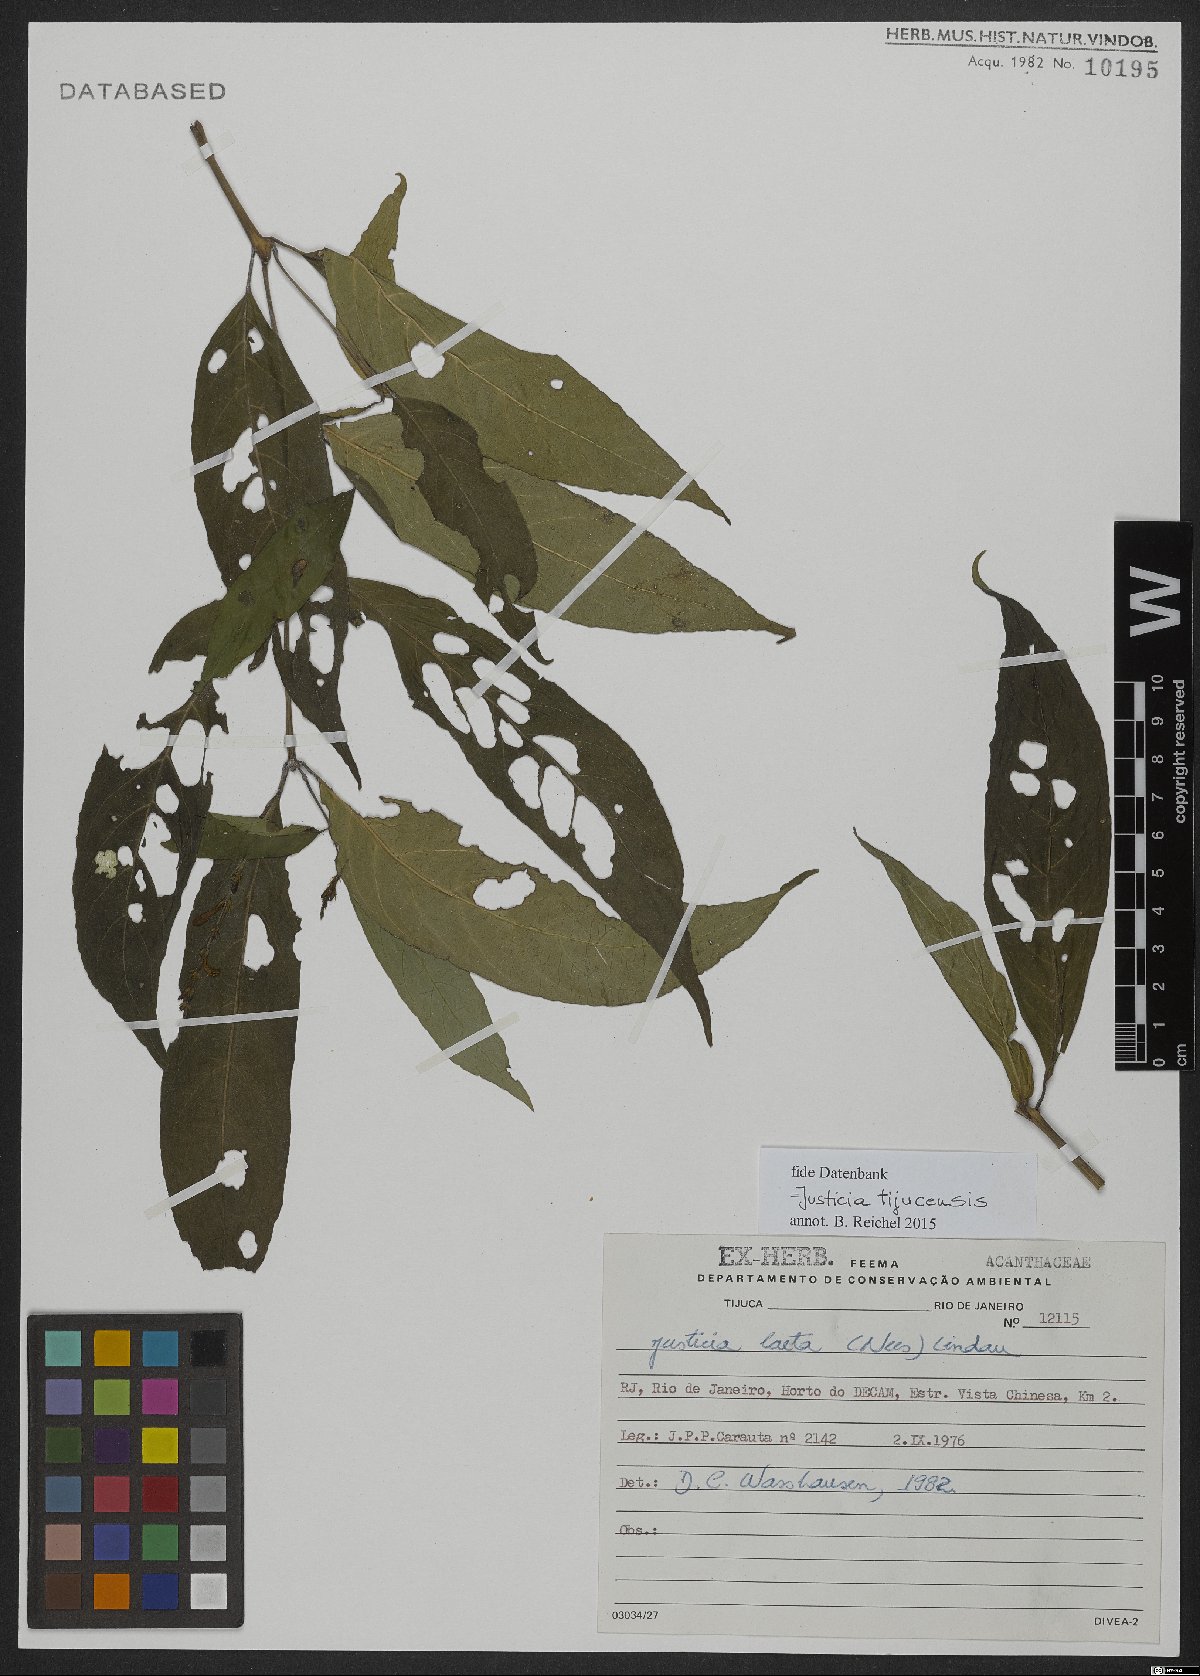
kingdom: Plantae
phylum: Tracheophyta
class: Magnoliopsida
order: Lamiales
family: Acanthaceae
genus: Dianthera
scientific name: Dianthera laeta
